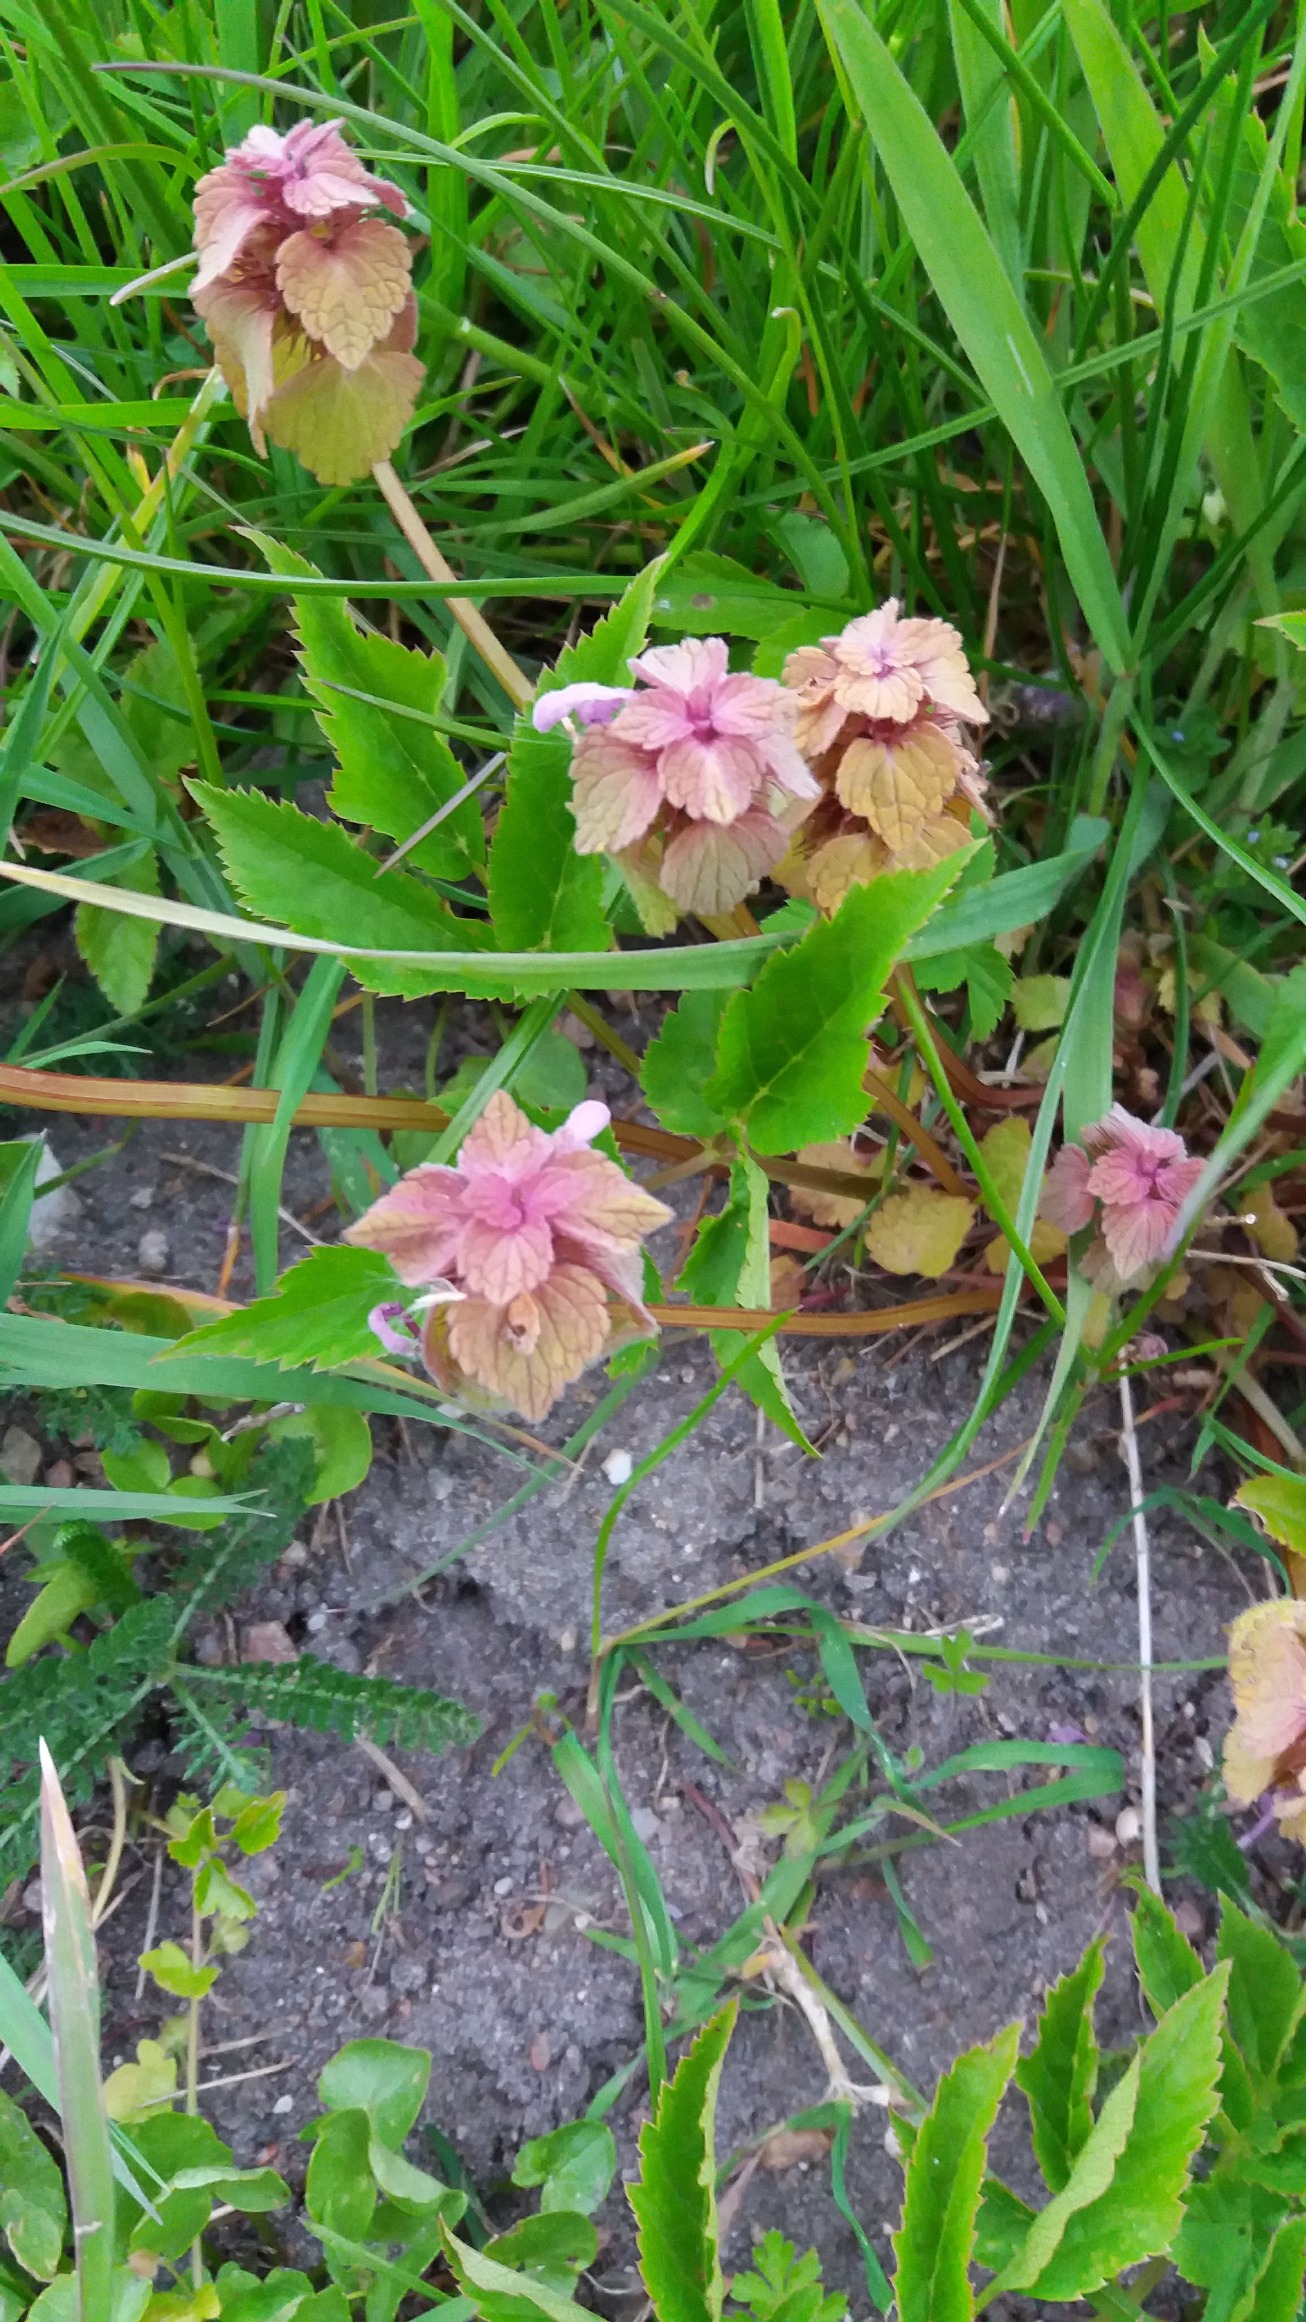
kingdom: Plantae
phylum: Tracheophyta
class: Magnoliopsida
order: Lamiales
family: Lamiaceae
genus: Lamium
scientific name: Lamium purpureum
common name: Rød tvetand
